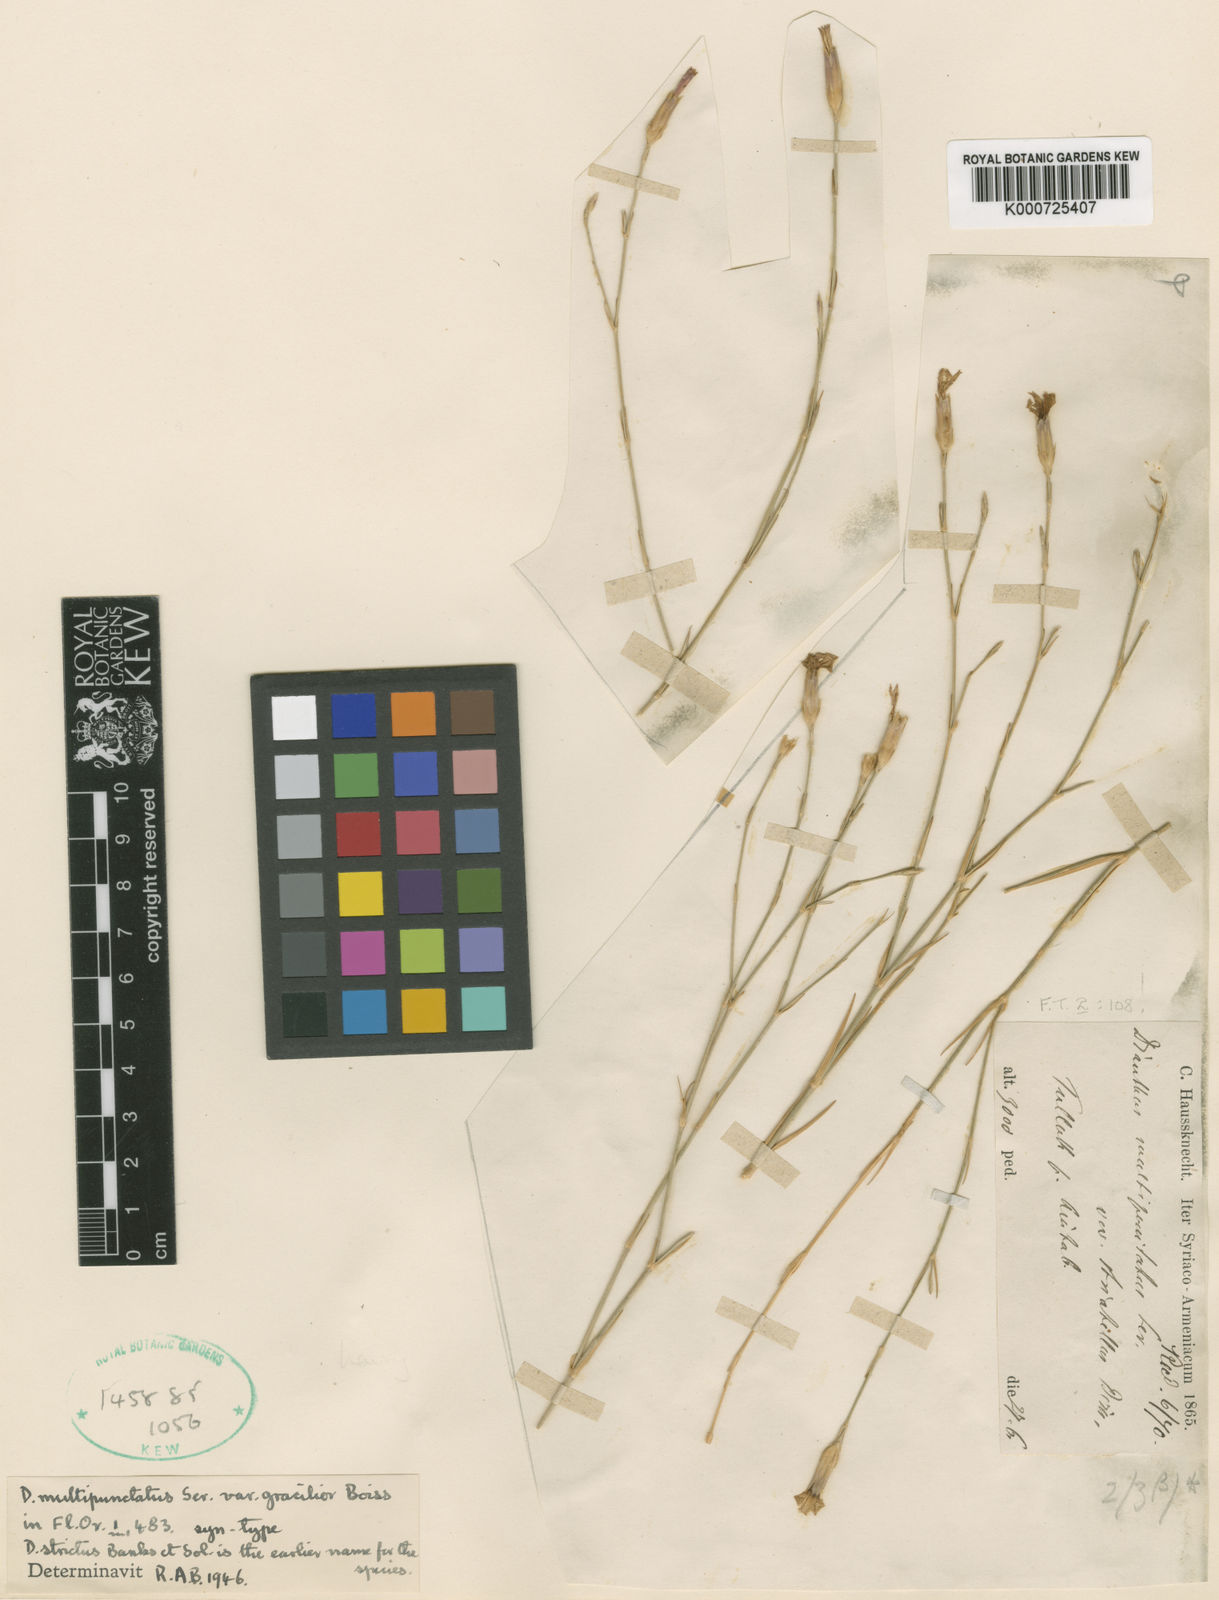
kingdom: Plantae
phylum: Tracheophyta
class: Magnoliopsida
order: Caryophyllales
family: Caryophyllaceae
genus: Dianthus
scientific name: Dianthus strictus
